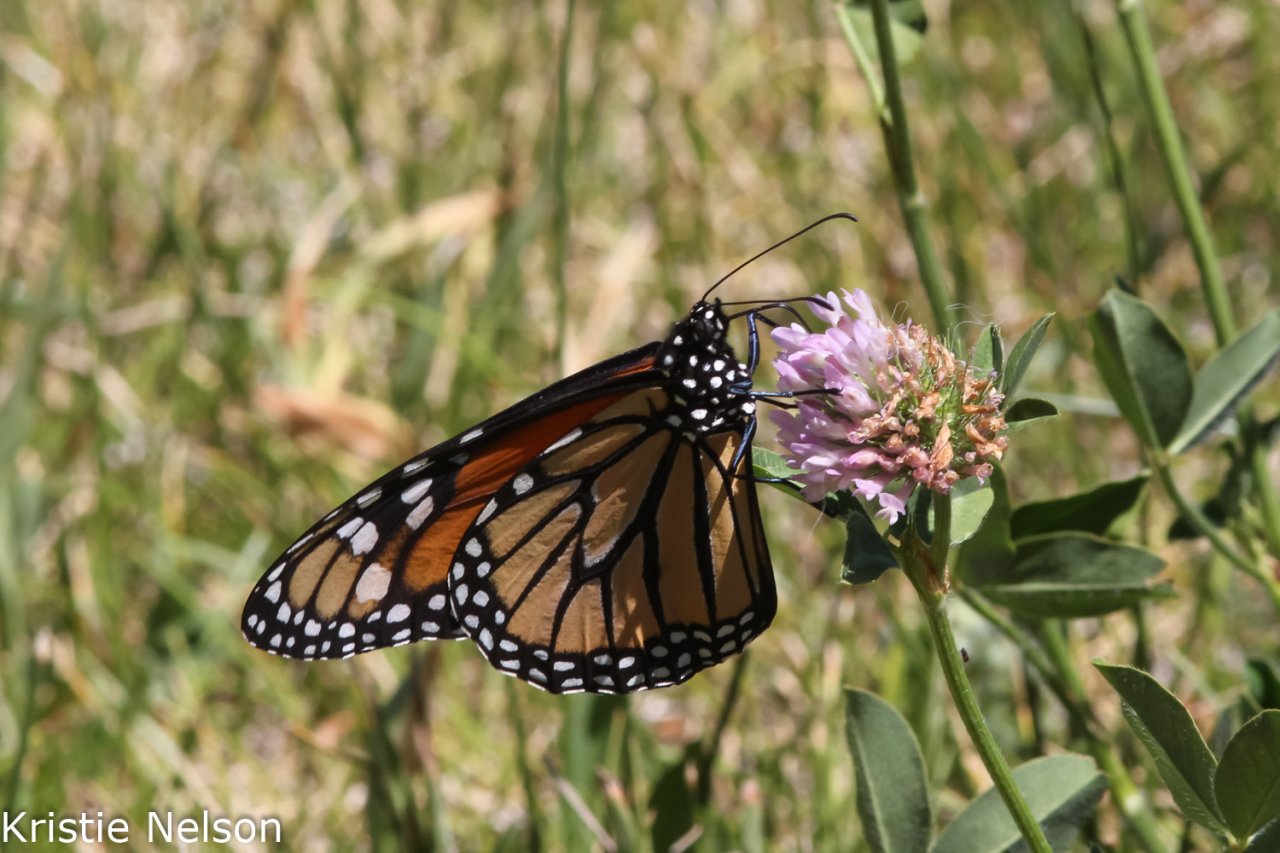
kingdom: Animalia
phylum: Arthropoda
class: Insecta
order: Lepidoptera
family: Nymphalidae
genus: Danaus
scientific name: Danaus plexippus
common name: Monarch
